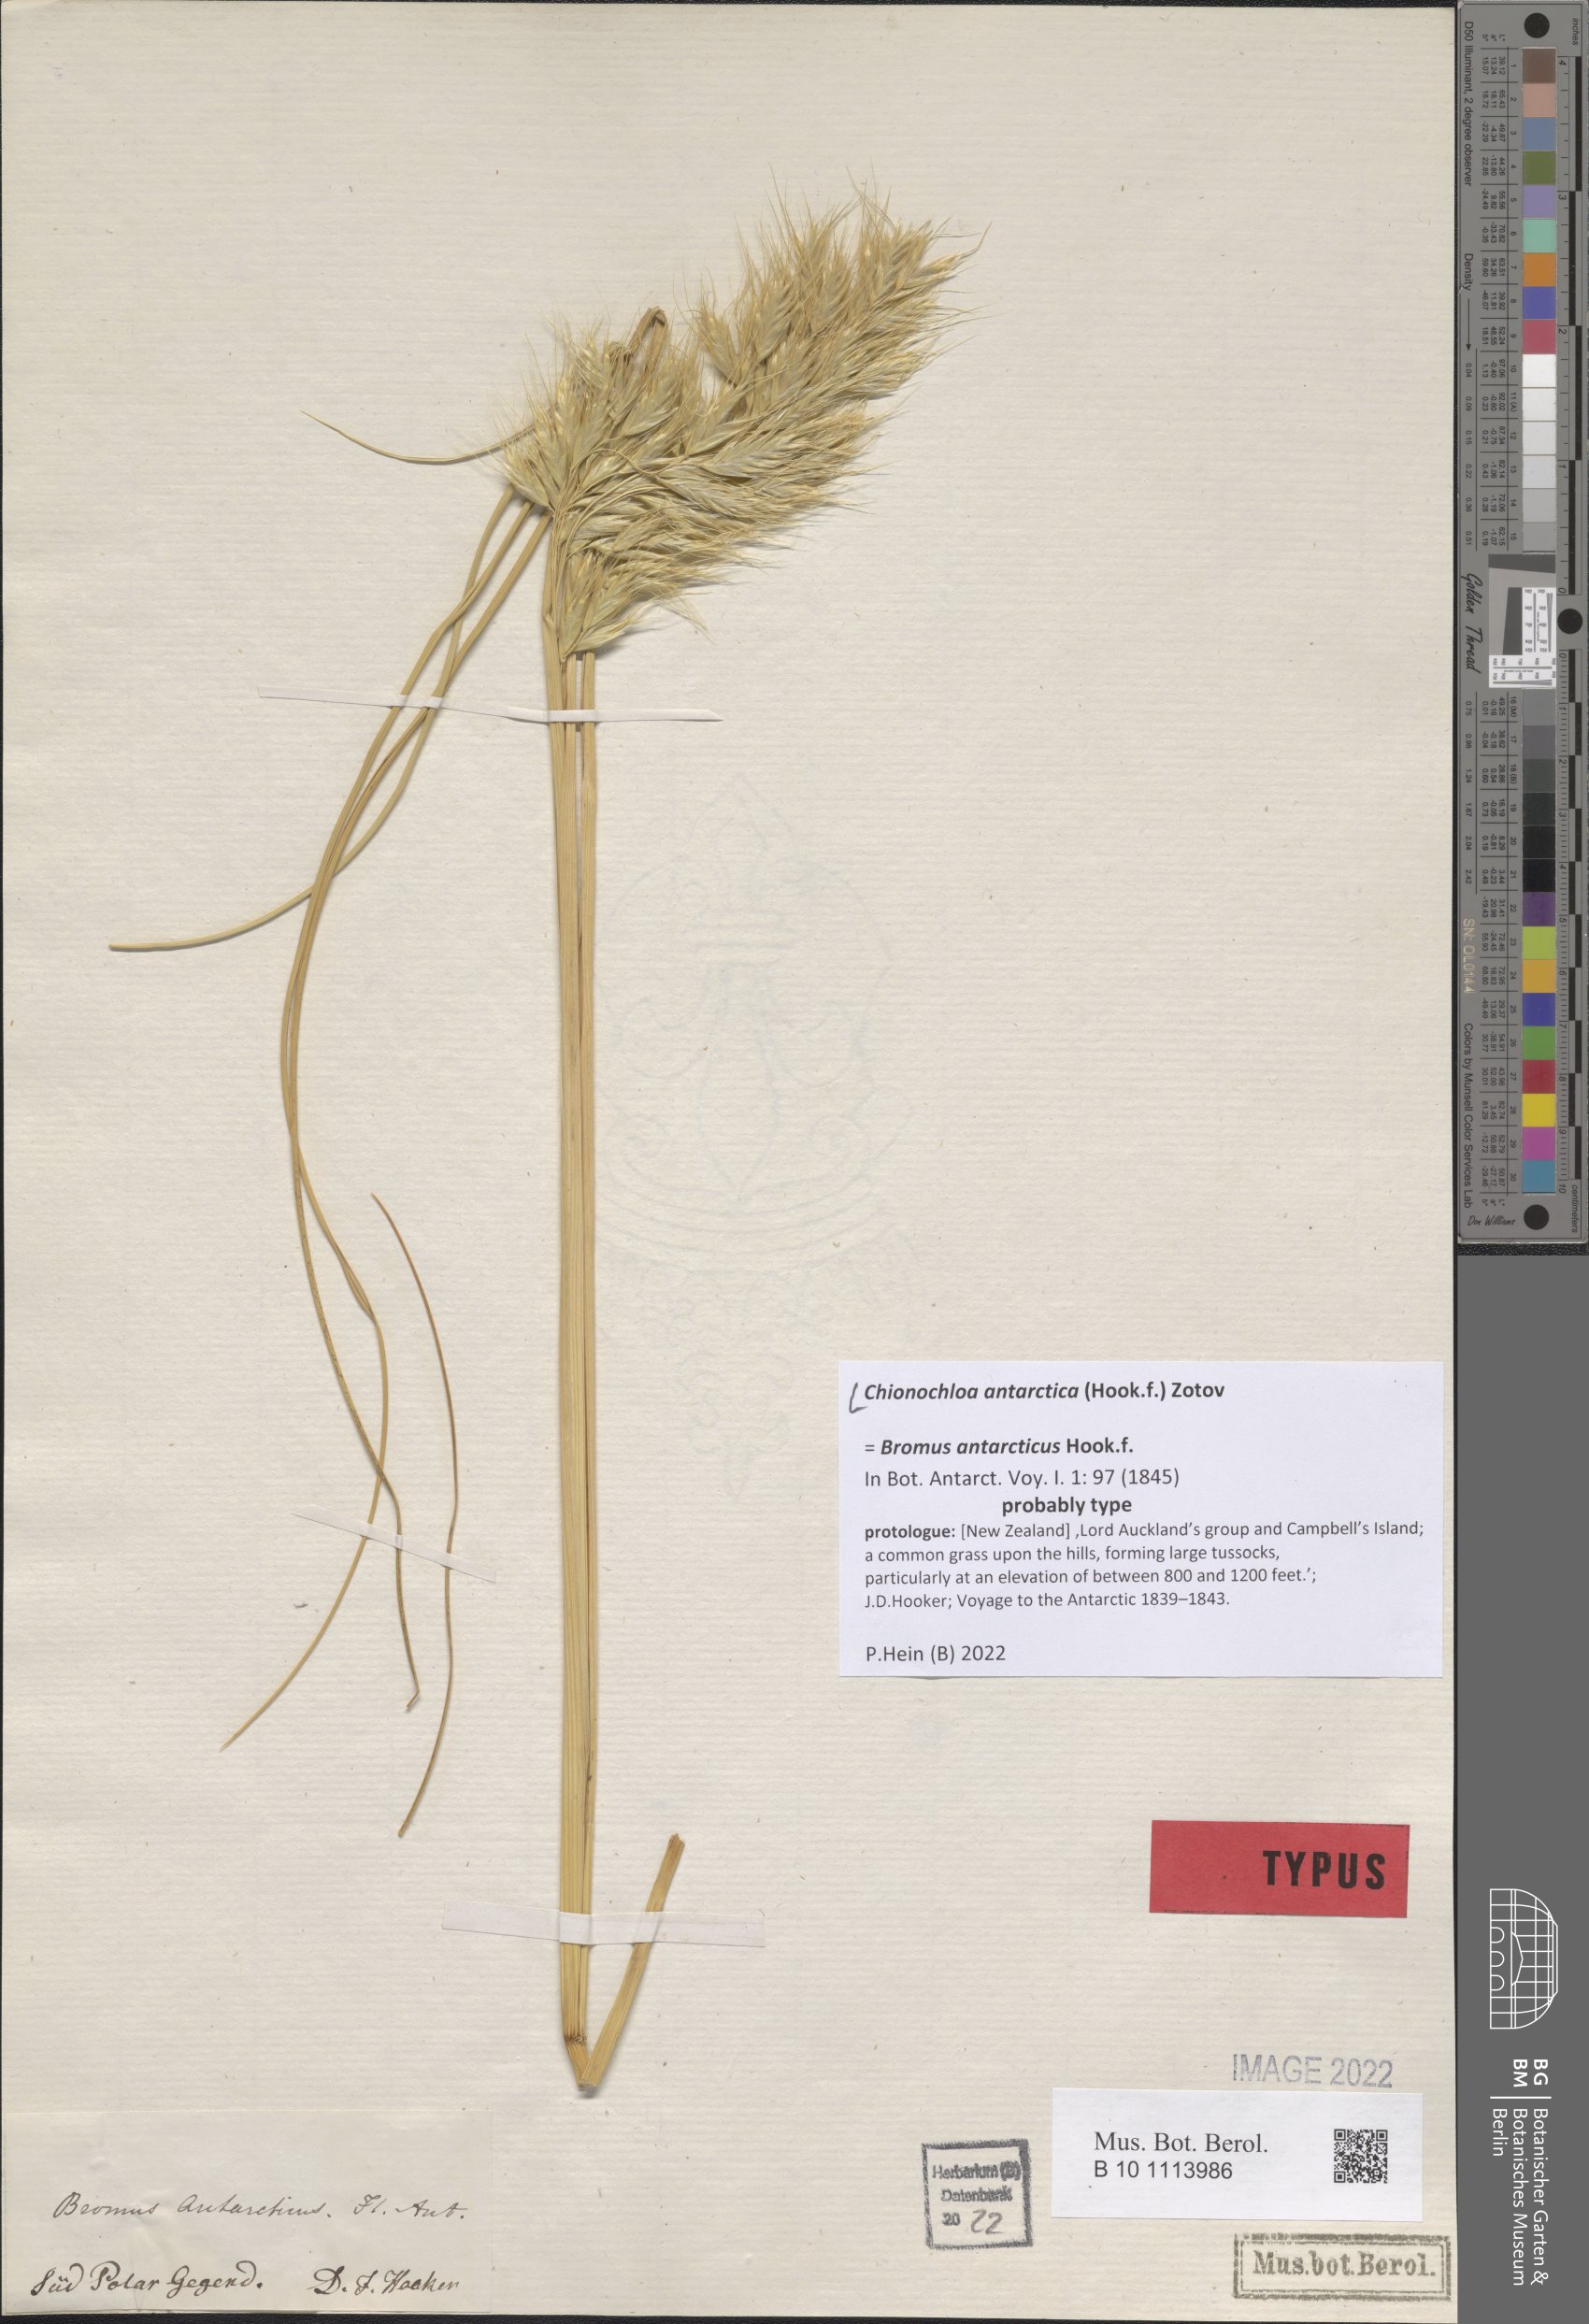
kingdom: Plantae
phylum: Tracheophyta
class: Liliopsida
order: Poales
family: Poaceae
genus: Chionochloa
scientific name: Chionochloa antarctica
